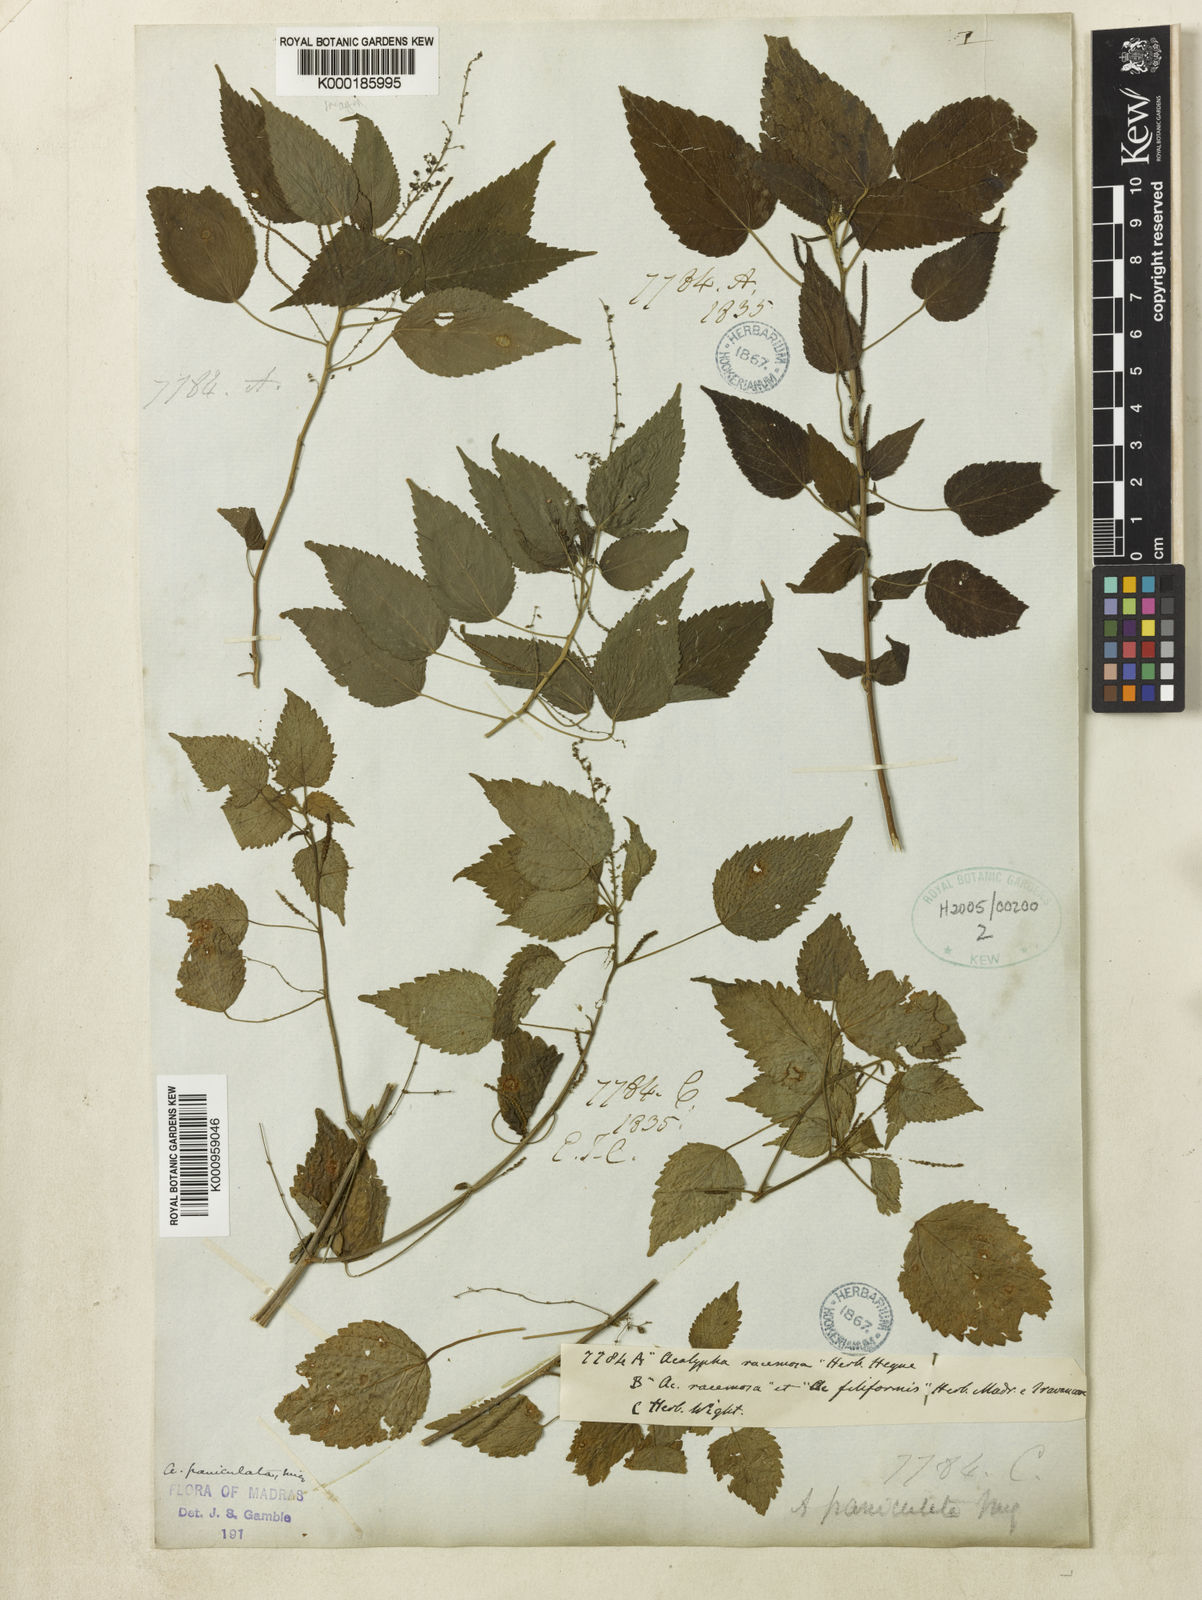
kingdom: Plantae
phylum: Tracheophyta
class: Magnoliopsida
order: Malpighiales
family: Euphorbiaceae
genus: Acalypha
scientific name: Acalypha paniculata
